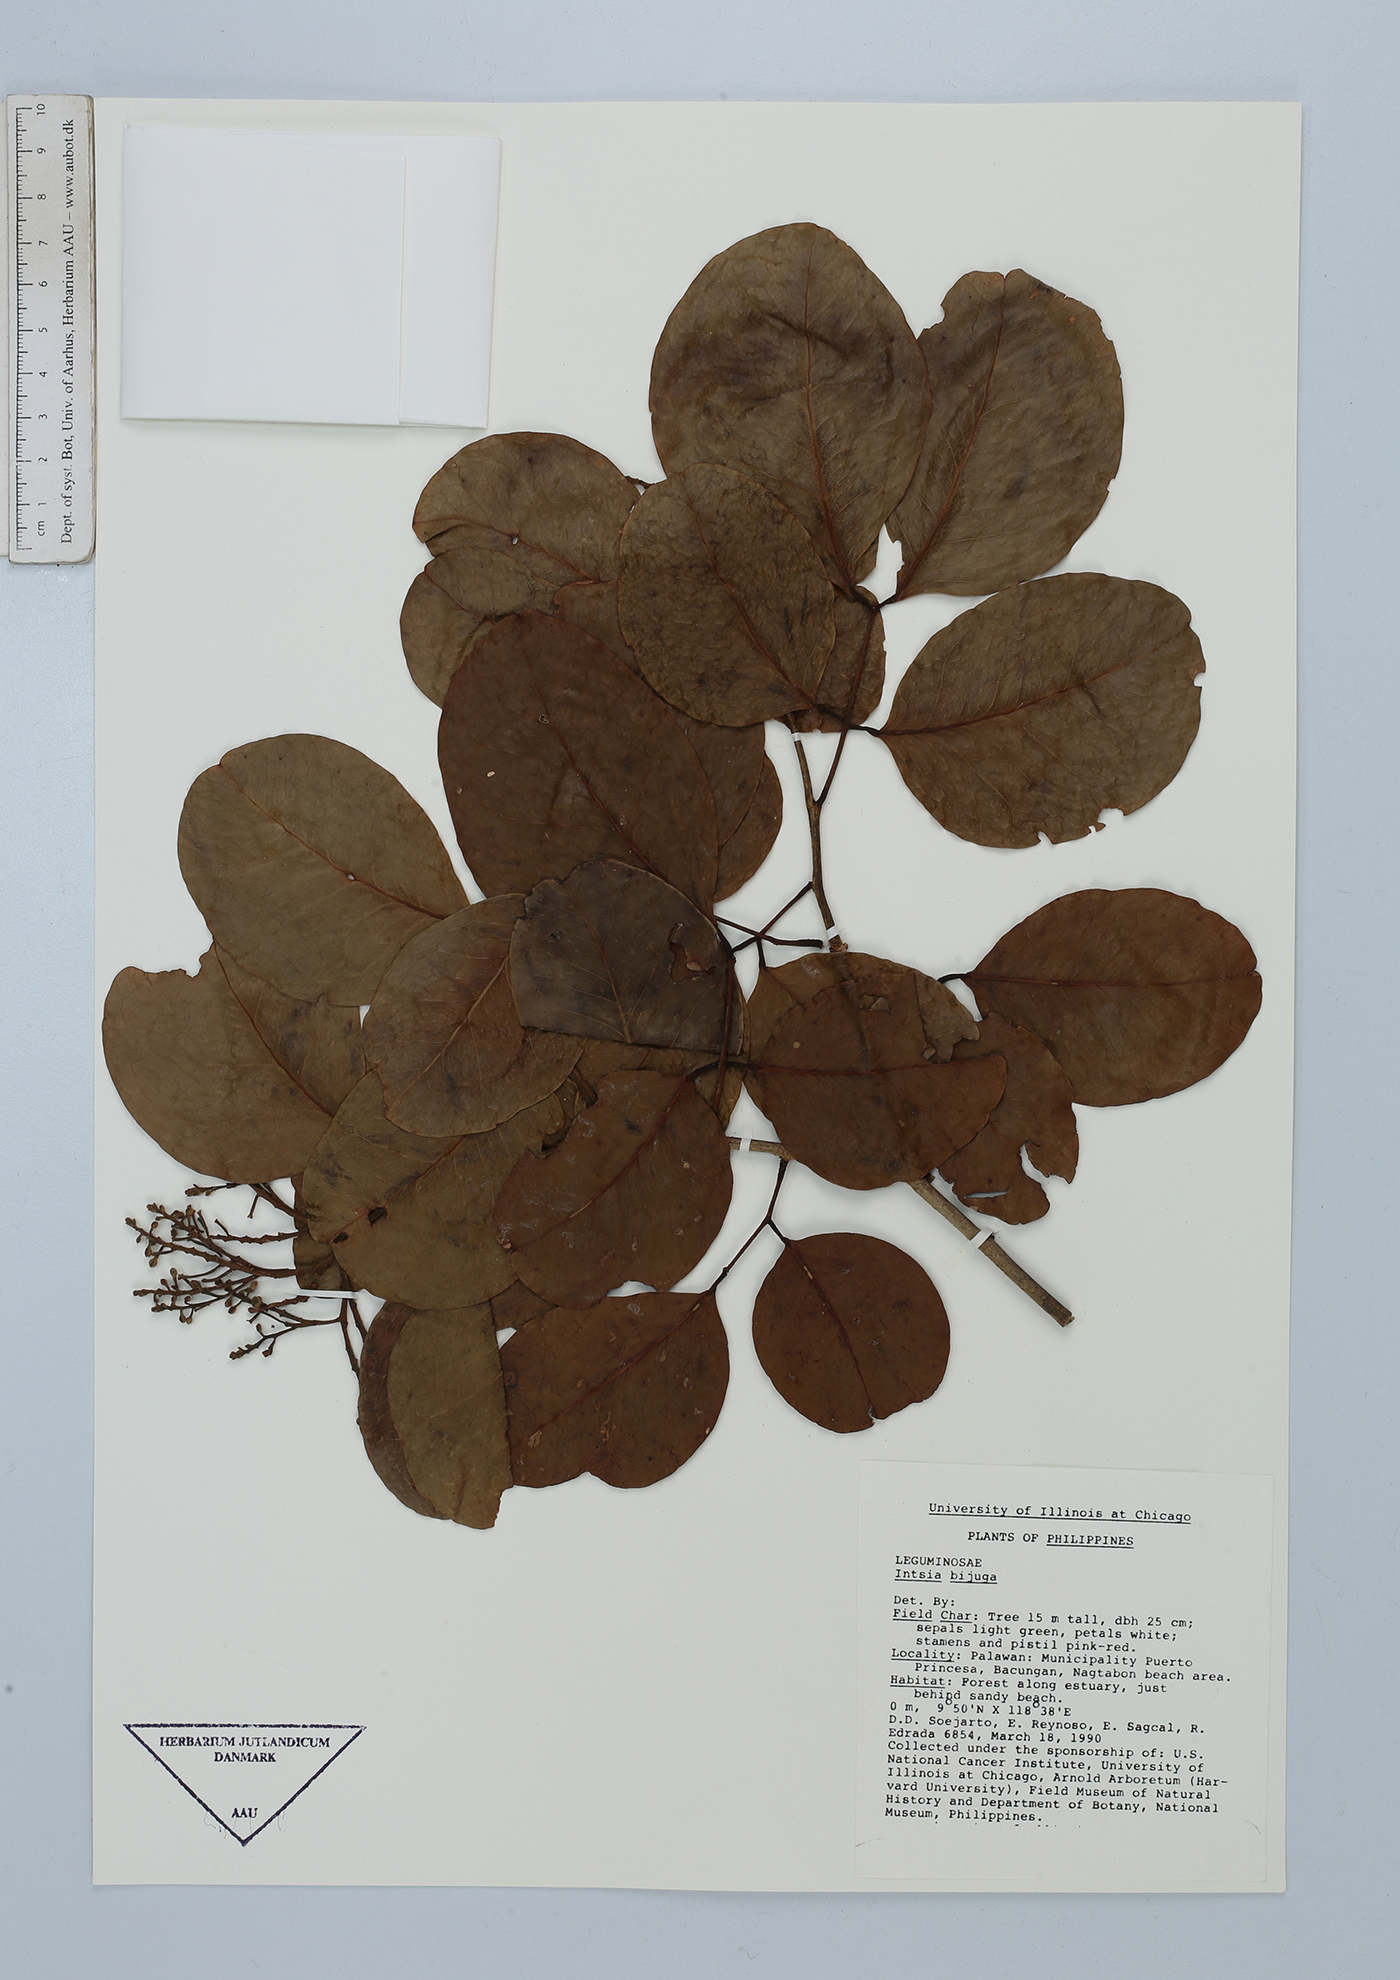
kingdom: Plantae
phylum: Tracheophyta
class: Magnoliopsida
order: Fabales
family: Fabaceae
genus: Intsia
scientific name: Intsia bijuga
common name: Moluccan ironwood
